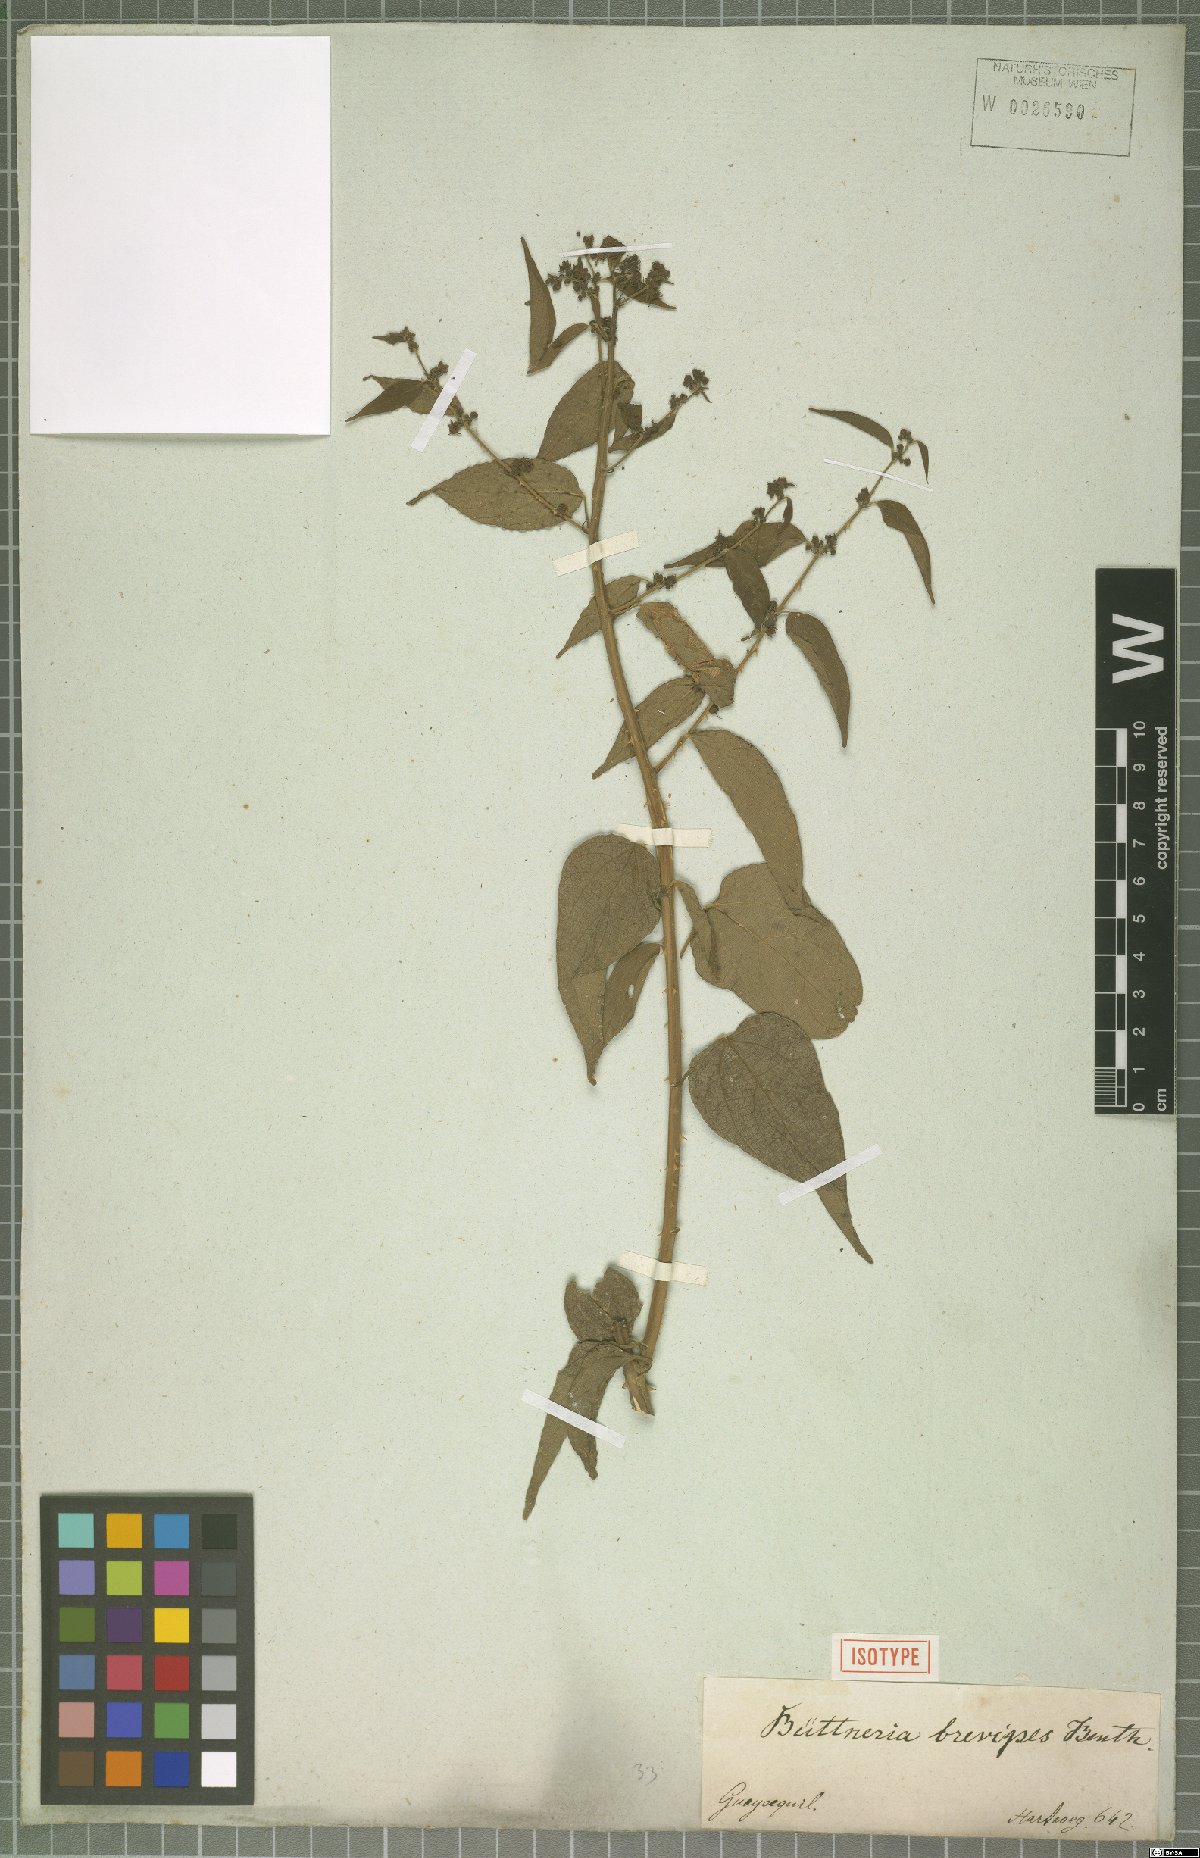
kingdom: Plantae
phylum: Tracheophyta
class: Magnoliopsida
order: Malvales
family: Malvaceae
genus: Byttneria
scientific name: Byttneria aculeata
